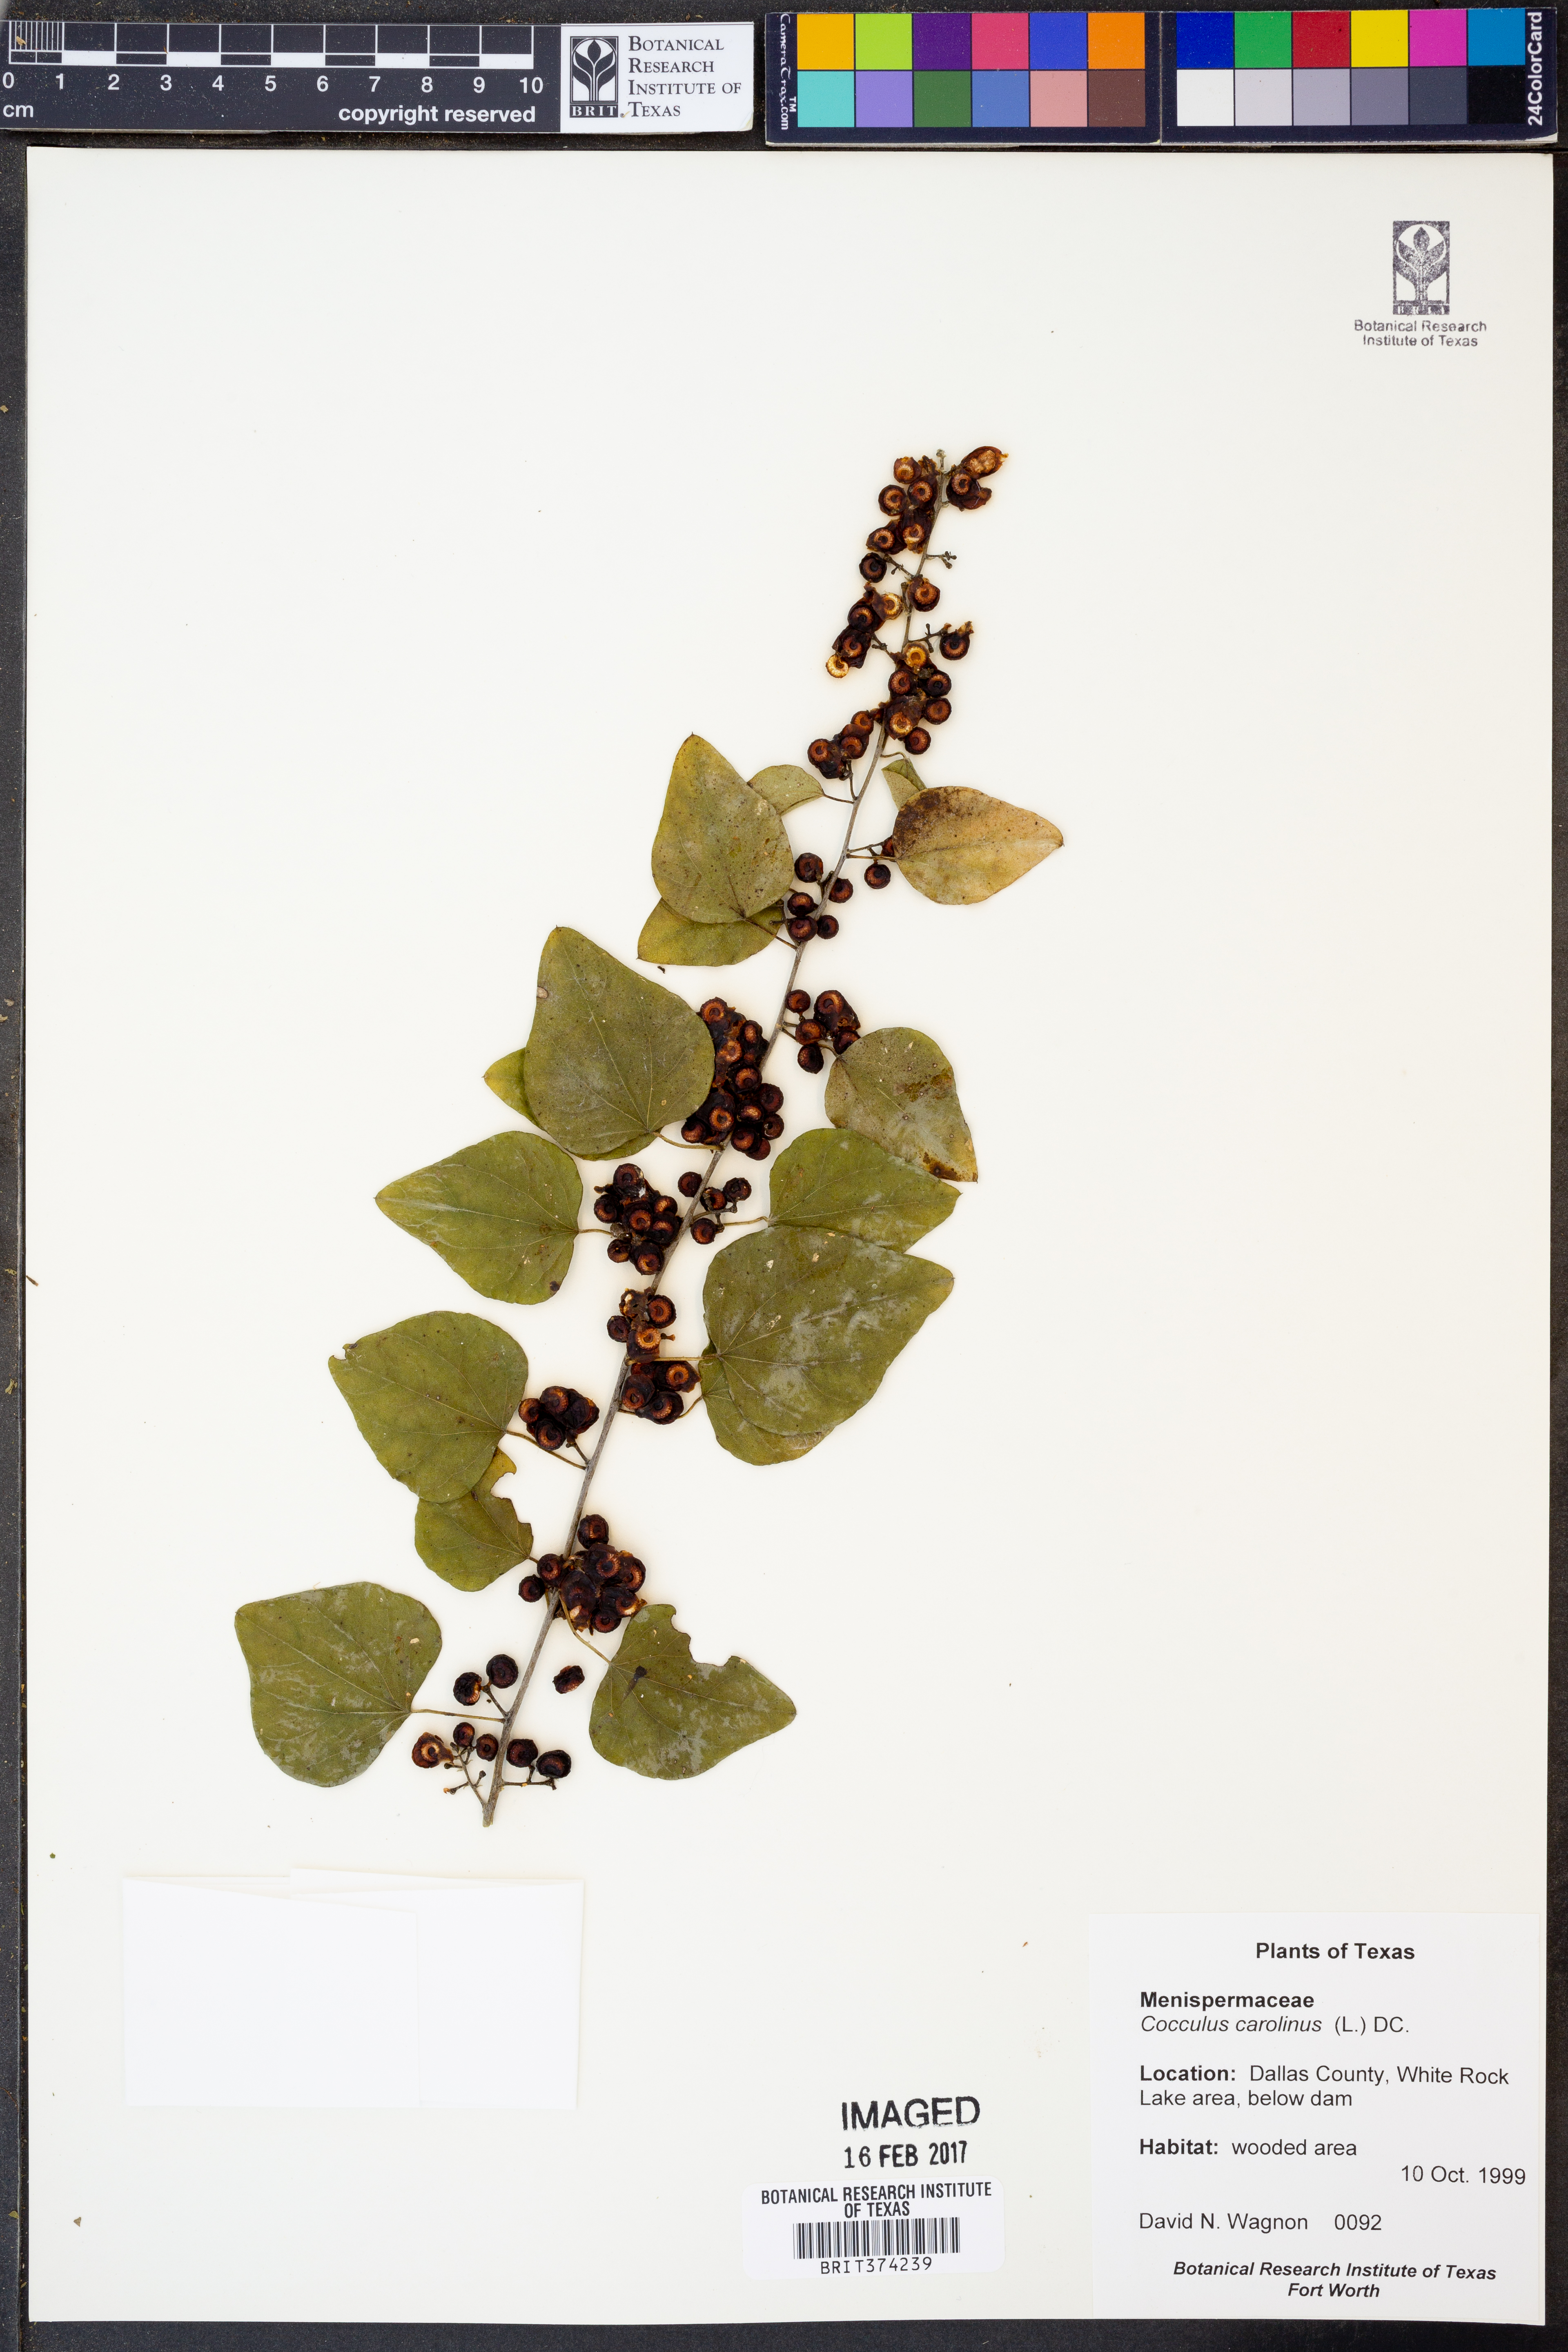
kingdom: Plantae
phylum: Tracheophyta
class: Magnoliopsida
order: Ranunculales
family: Menispermaceae
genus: Cocculus
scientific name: Cocculus carolinus
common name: Carolina moonseed
